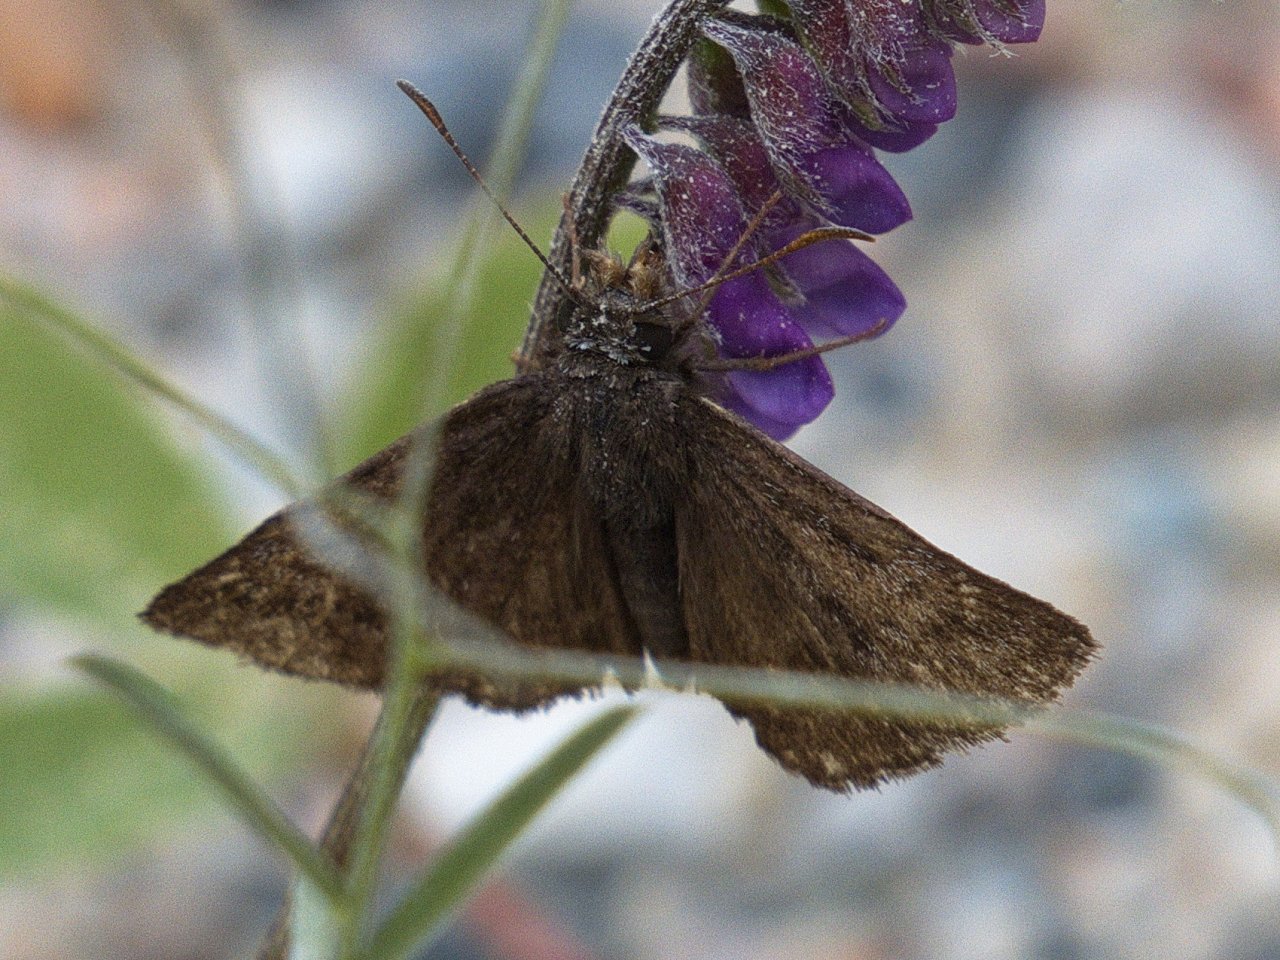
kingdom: Animalia
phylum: Arthropoda
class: Insecta
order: Lepidoptera
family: Hesperiidae
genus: Erynnis
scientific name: Erynnis
